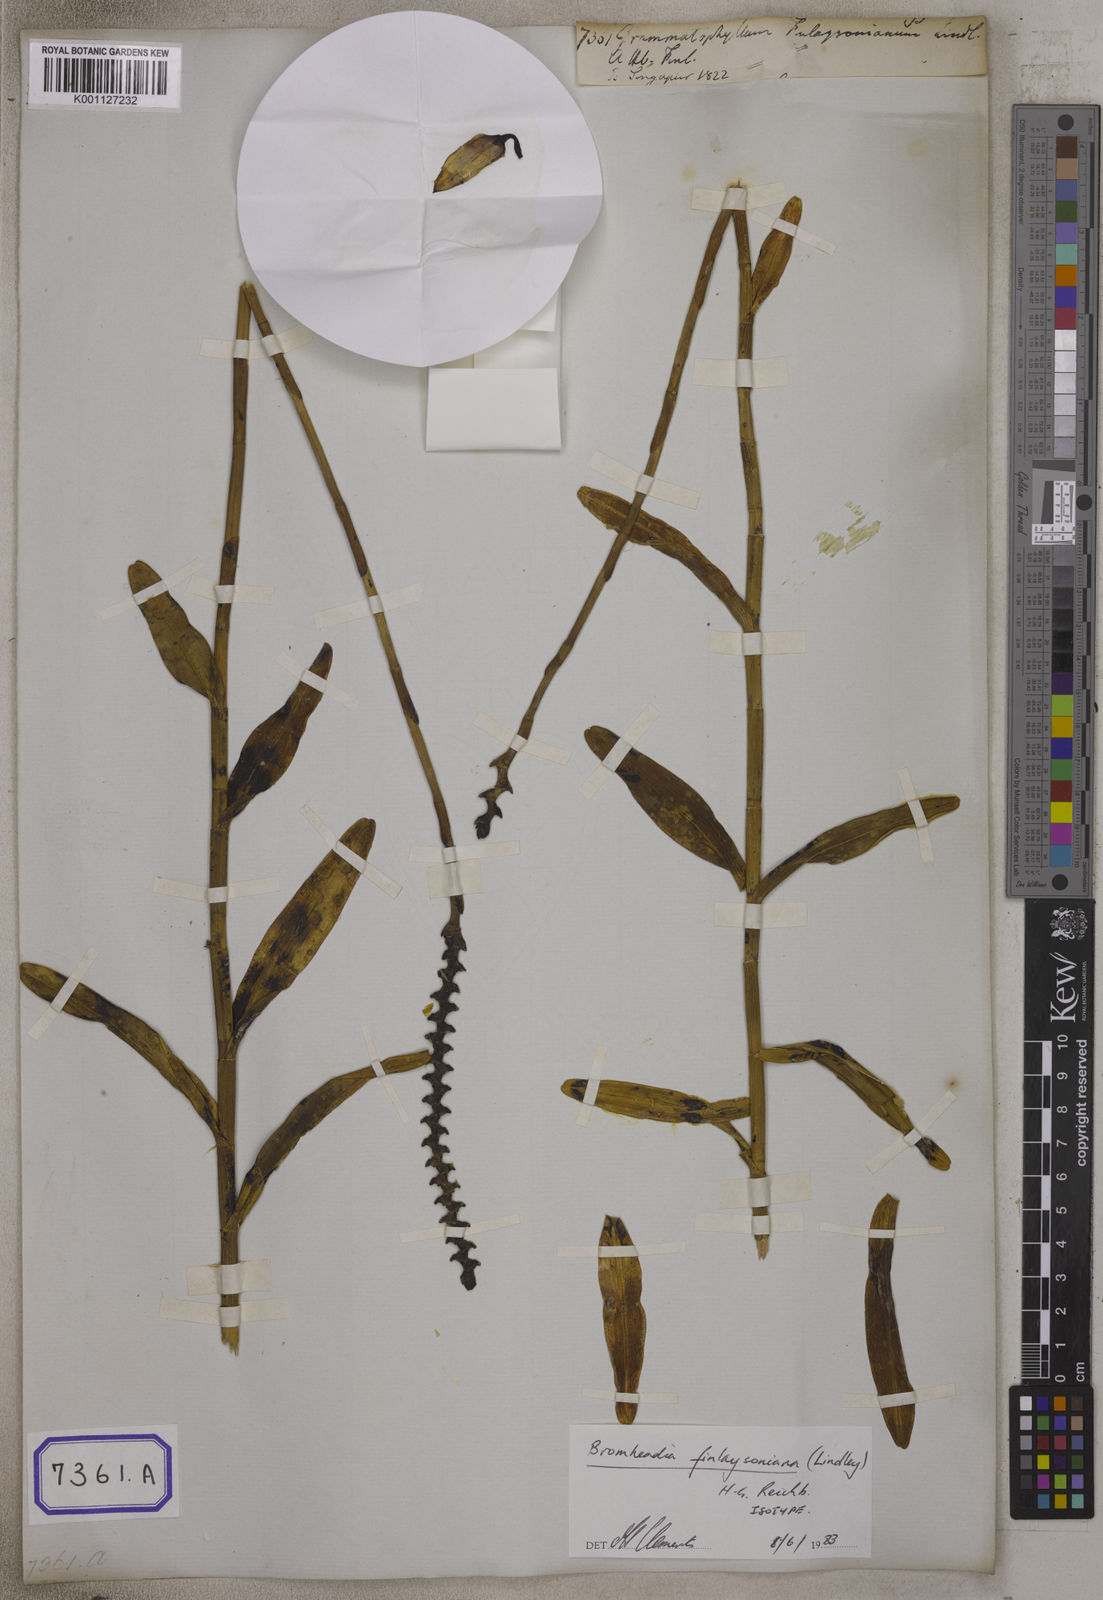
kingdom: Plantae
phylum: Tracheophyta
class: Liliopsida
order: Asparagales
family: Orchidaceae
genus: Grammatophyllum
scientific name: Grammatophyllum
